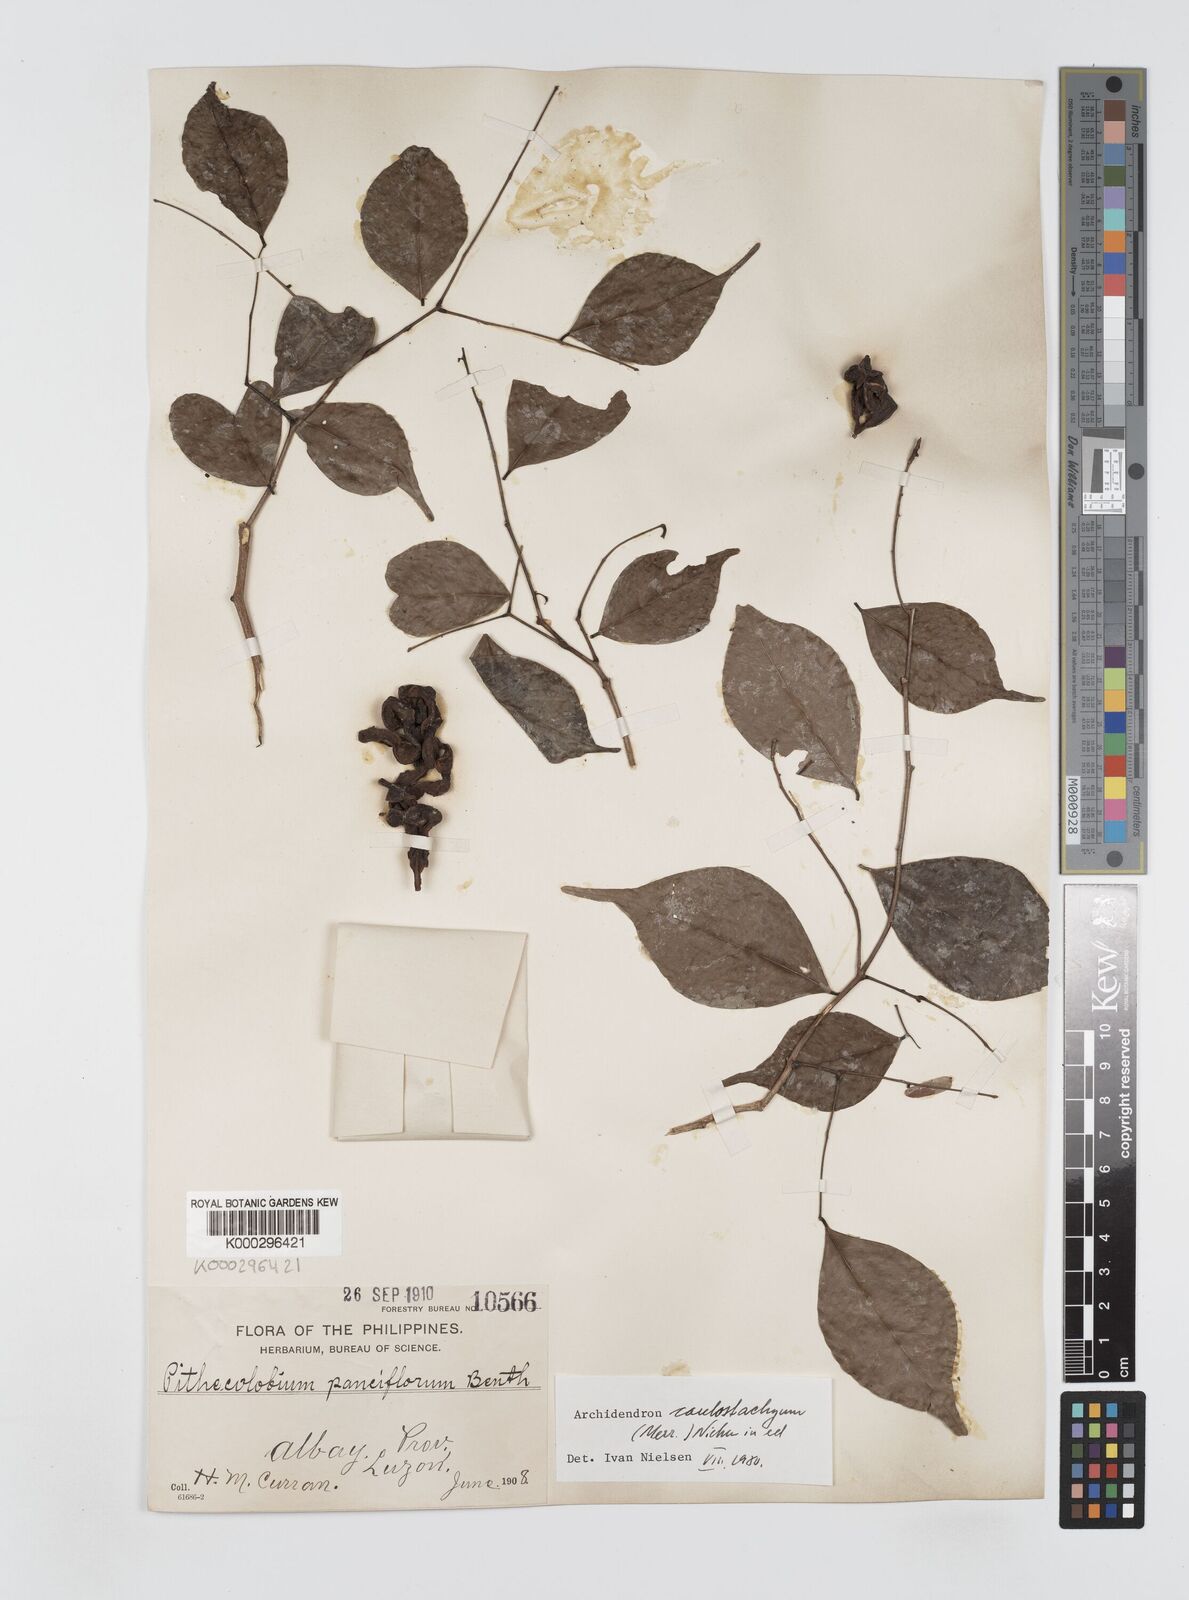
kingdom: Plantae
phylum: Tracheophyta
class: Magnoliopsida
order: Fabales
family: Fabaceae
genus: Archidendron
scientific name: Archidendron pauciflorum
